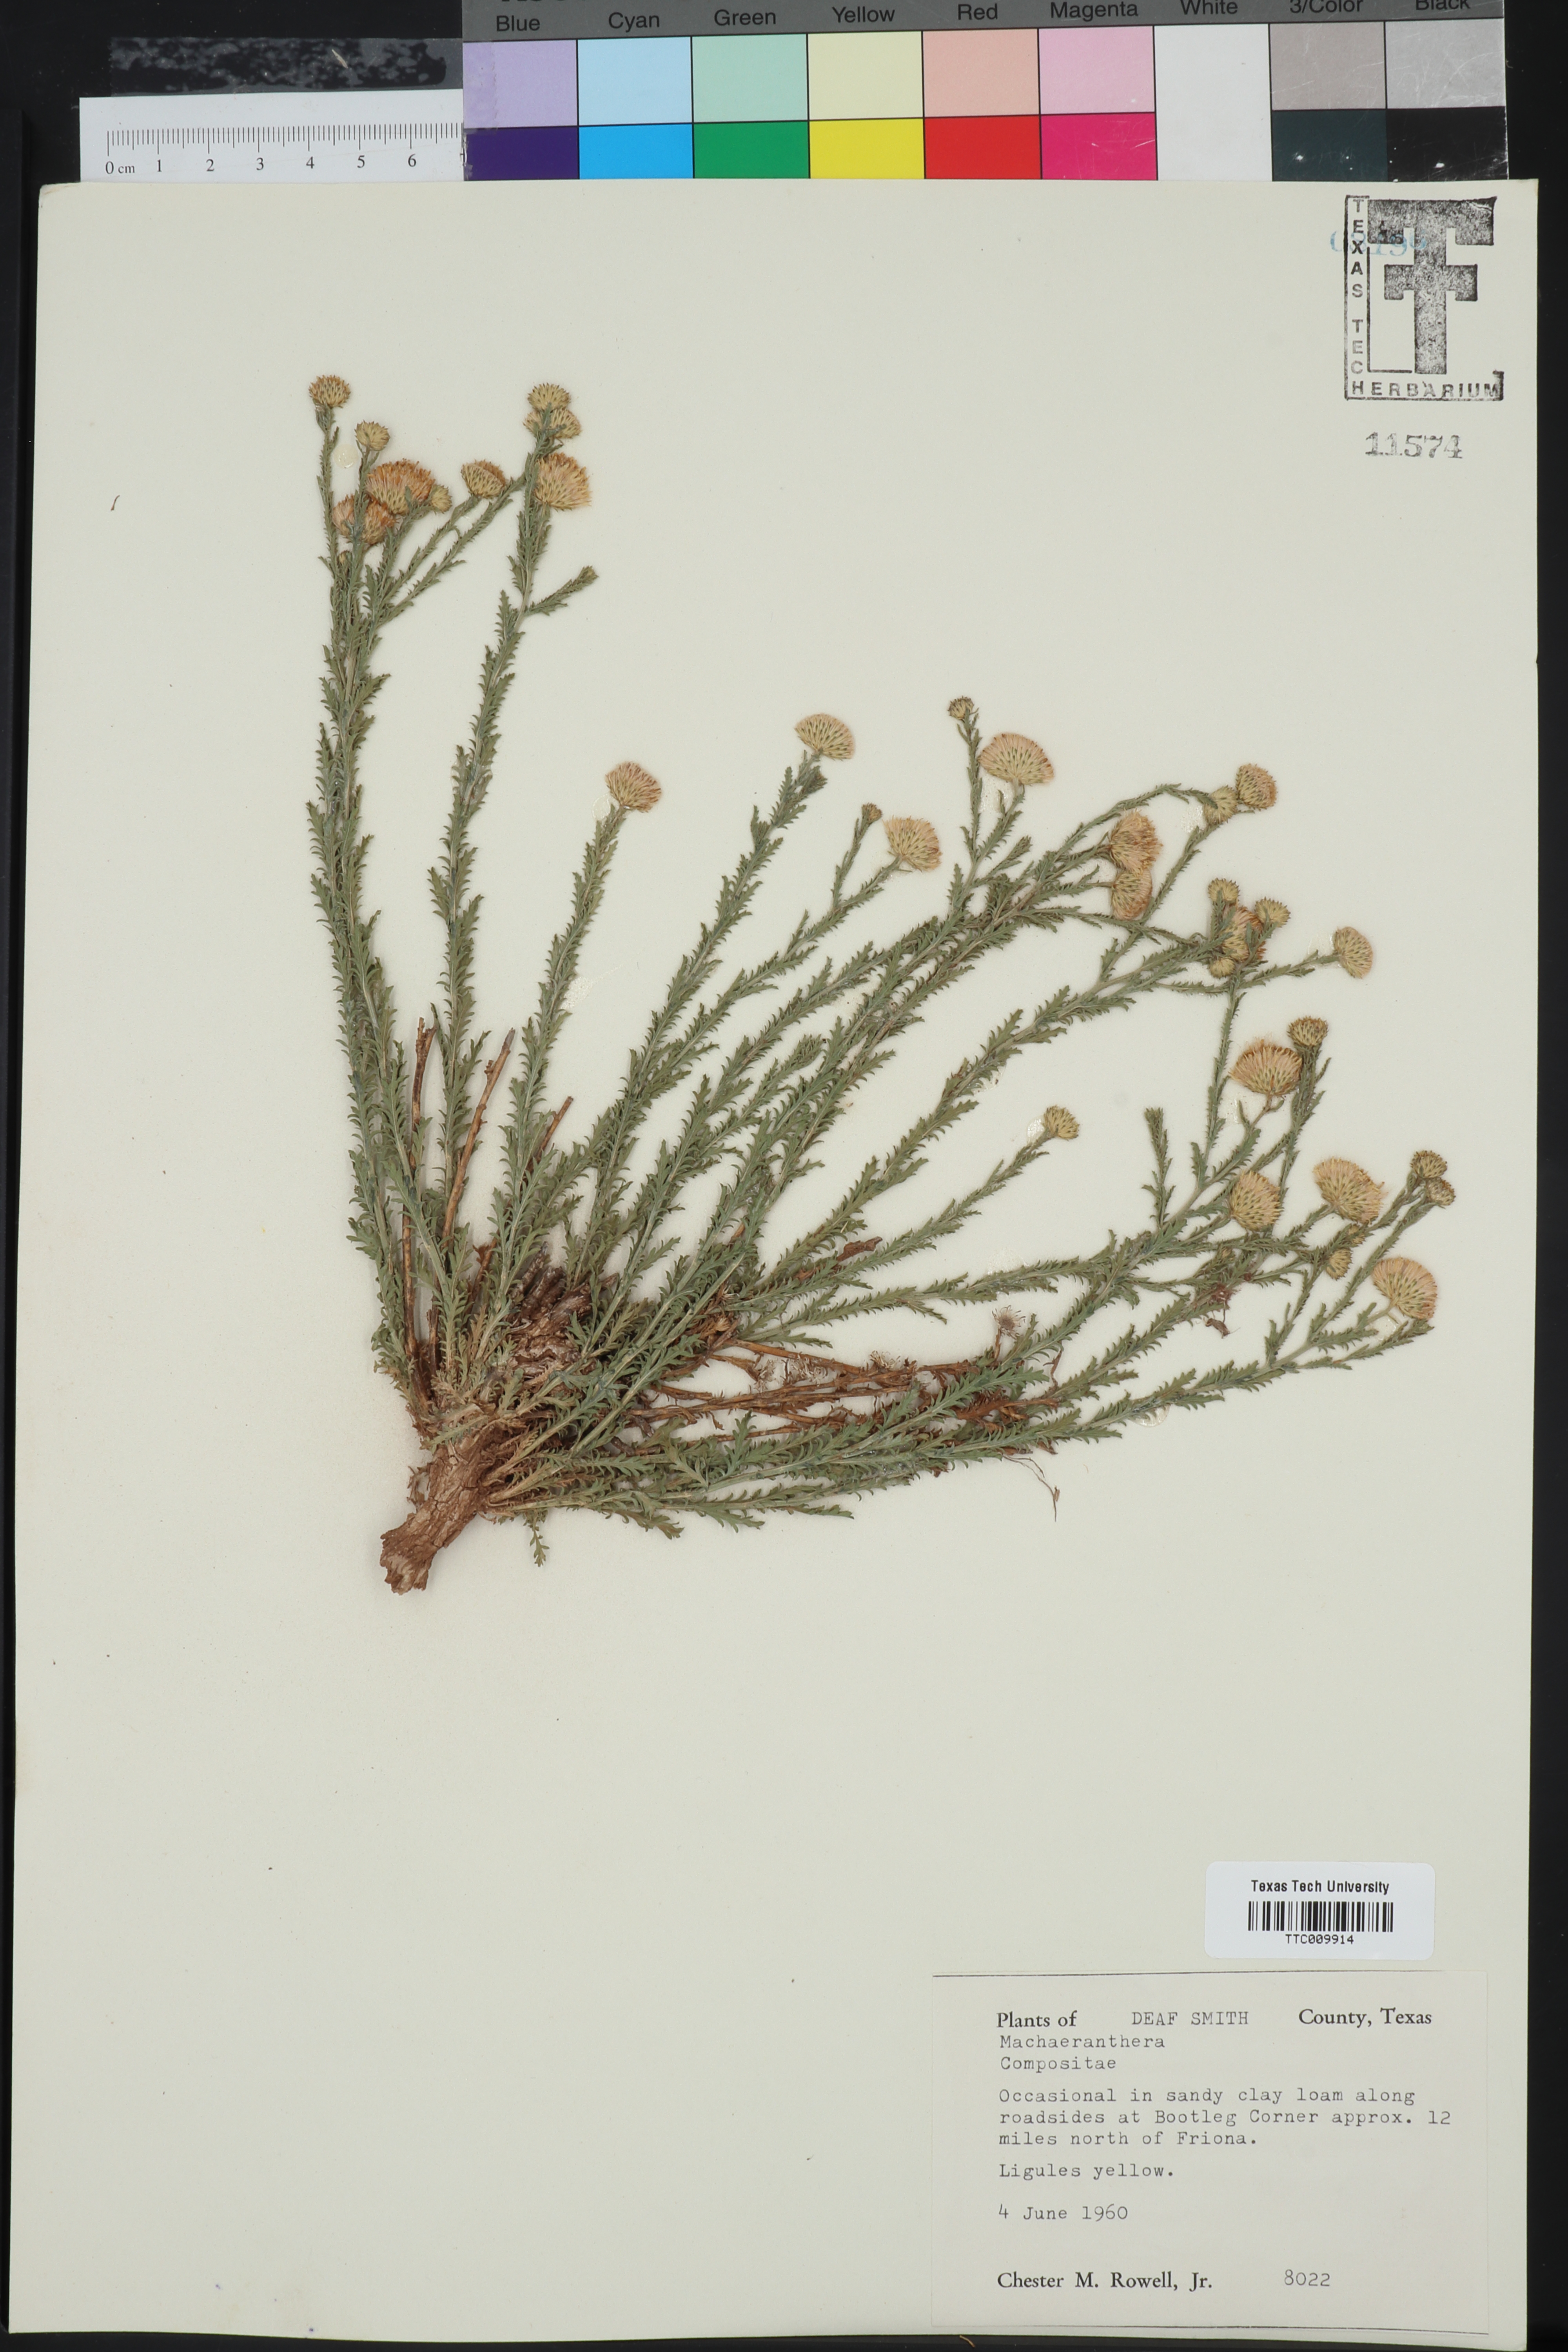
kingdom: Plantae
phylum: Tracheophyta
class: Magnoliopsida
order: Asterales
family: Asteraceae
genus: Machaeranthera
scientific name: Machaeranthera
